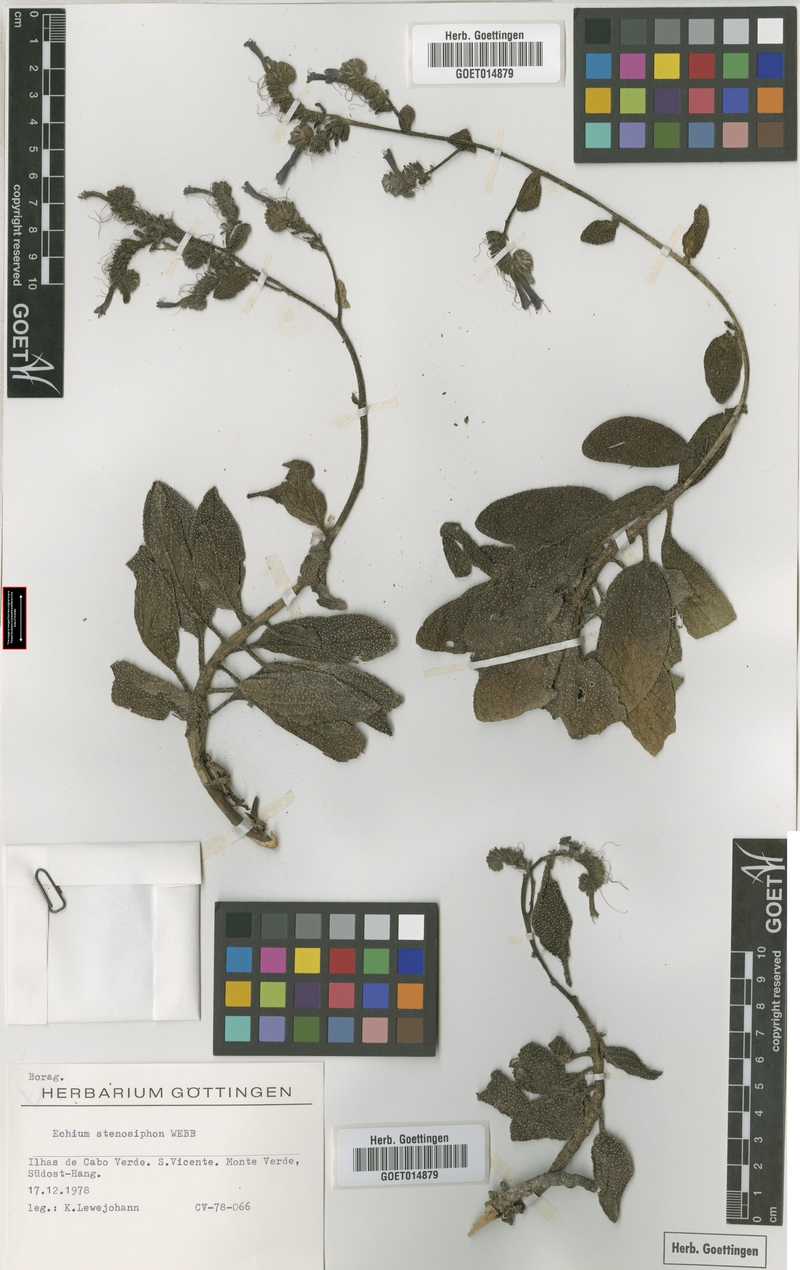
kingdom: Plantae
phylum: Tracheophyta
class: Magnoliopsida
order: Boraginales
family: Boraginaceae
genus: Echium
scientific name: Echium vulcanorum
